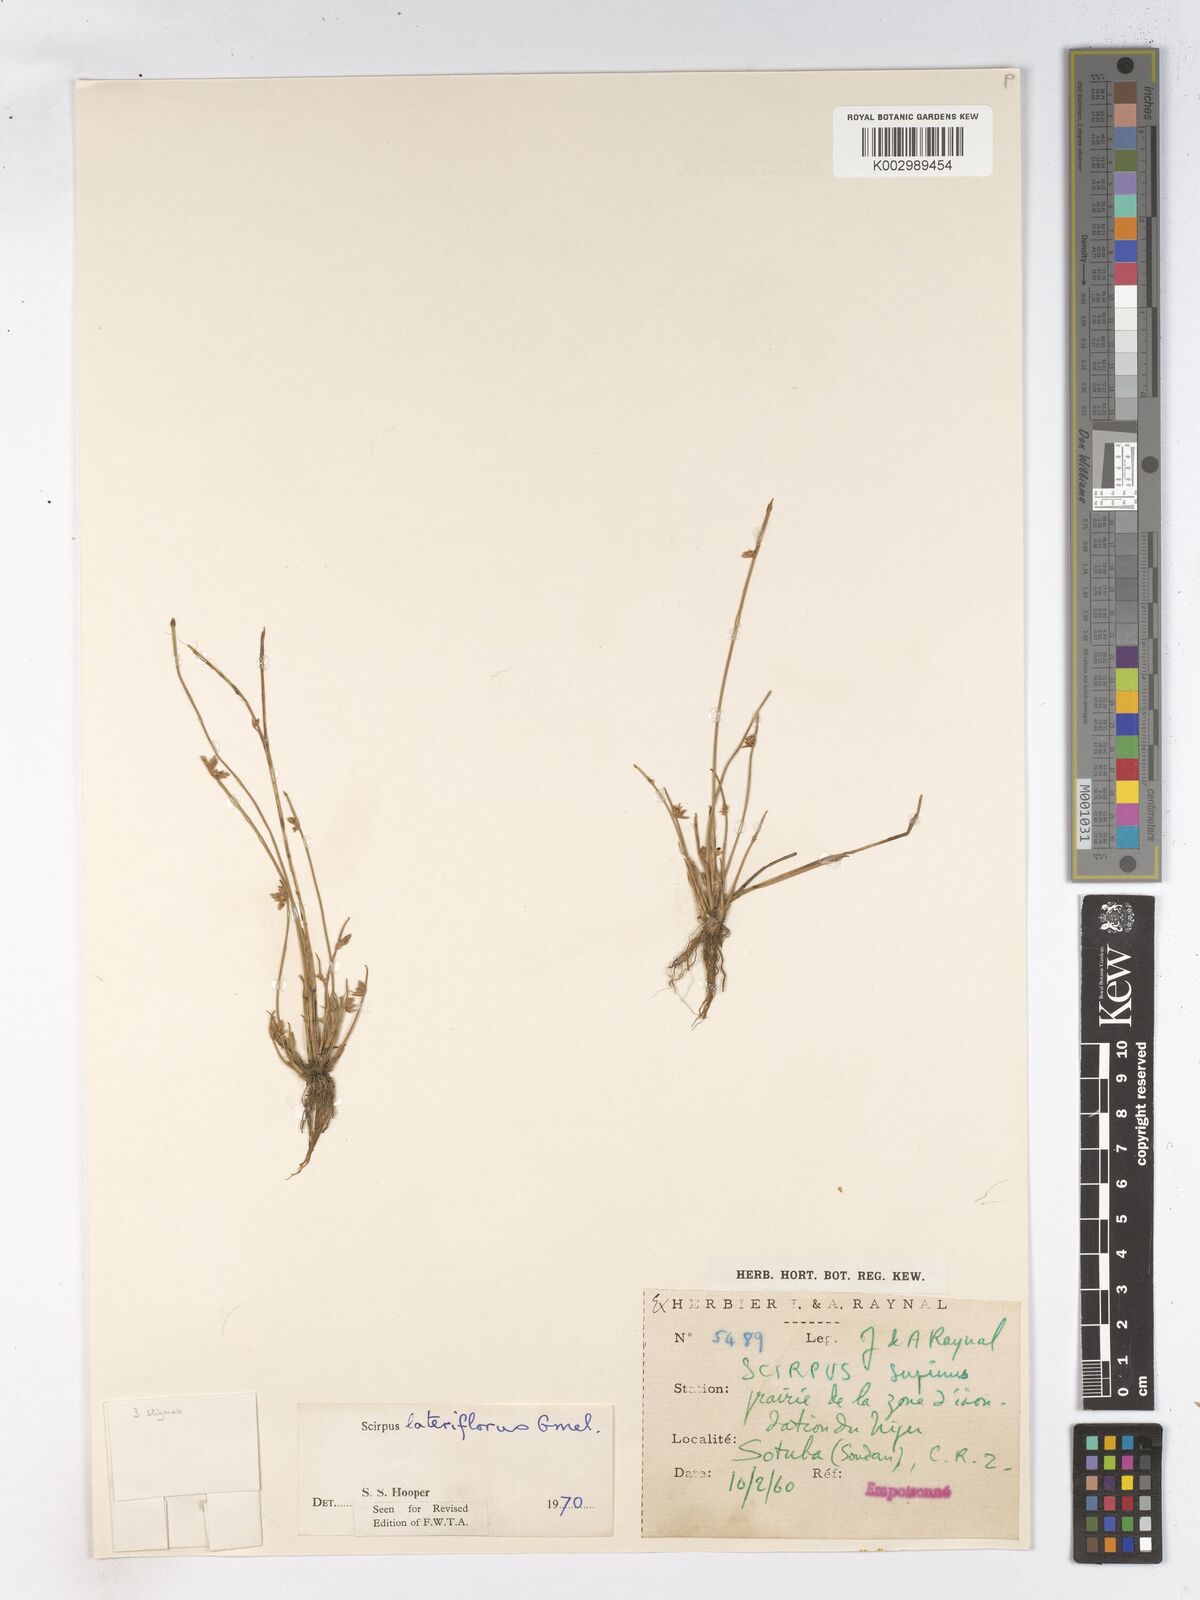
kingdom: Plantae
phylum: Tracheophyta
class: Liliopsida
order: Poales
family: Cyperaceae
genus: Schoenoplectiella
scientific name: Schoenoplectiella lateriflora
